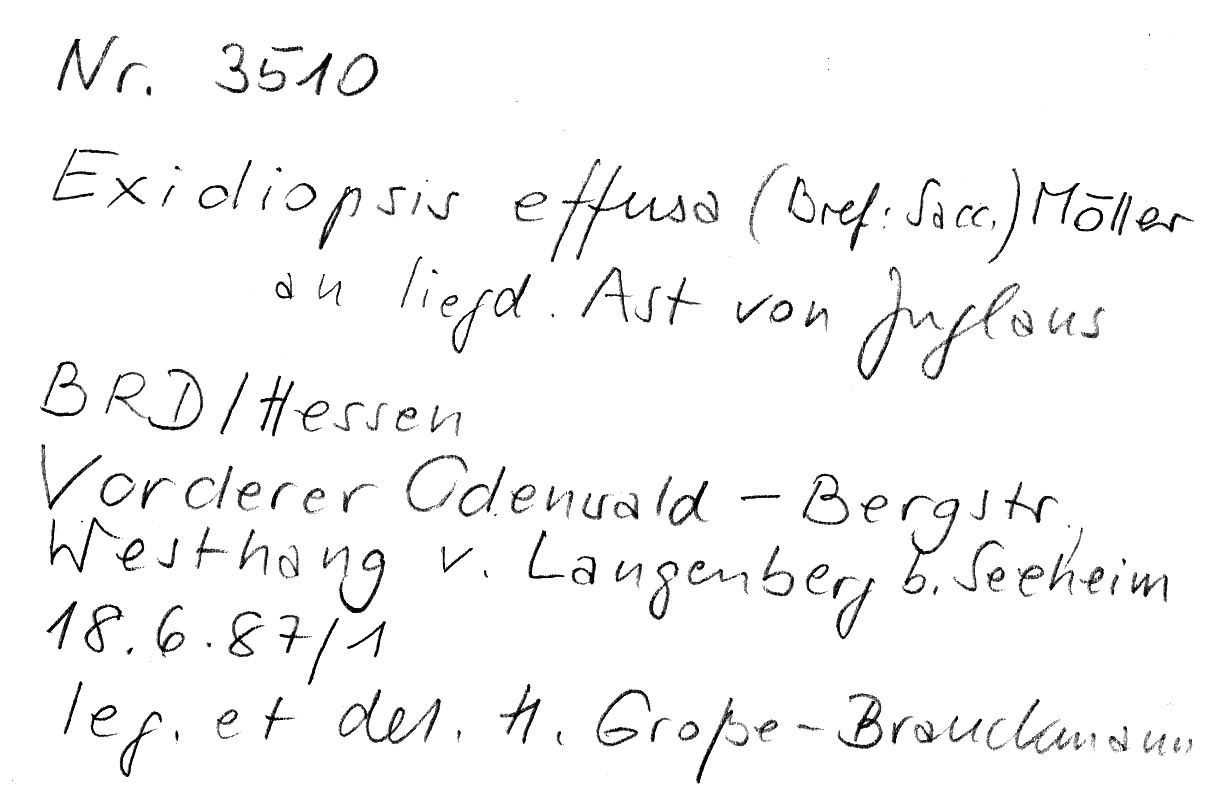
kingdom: Plantae
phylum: Tracheophyta
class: Magnoliopsida
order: Fagales
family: Juglandaceae
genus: Juglans
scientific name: Juglans
